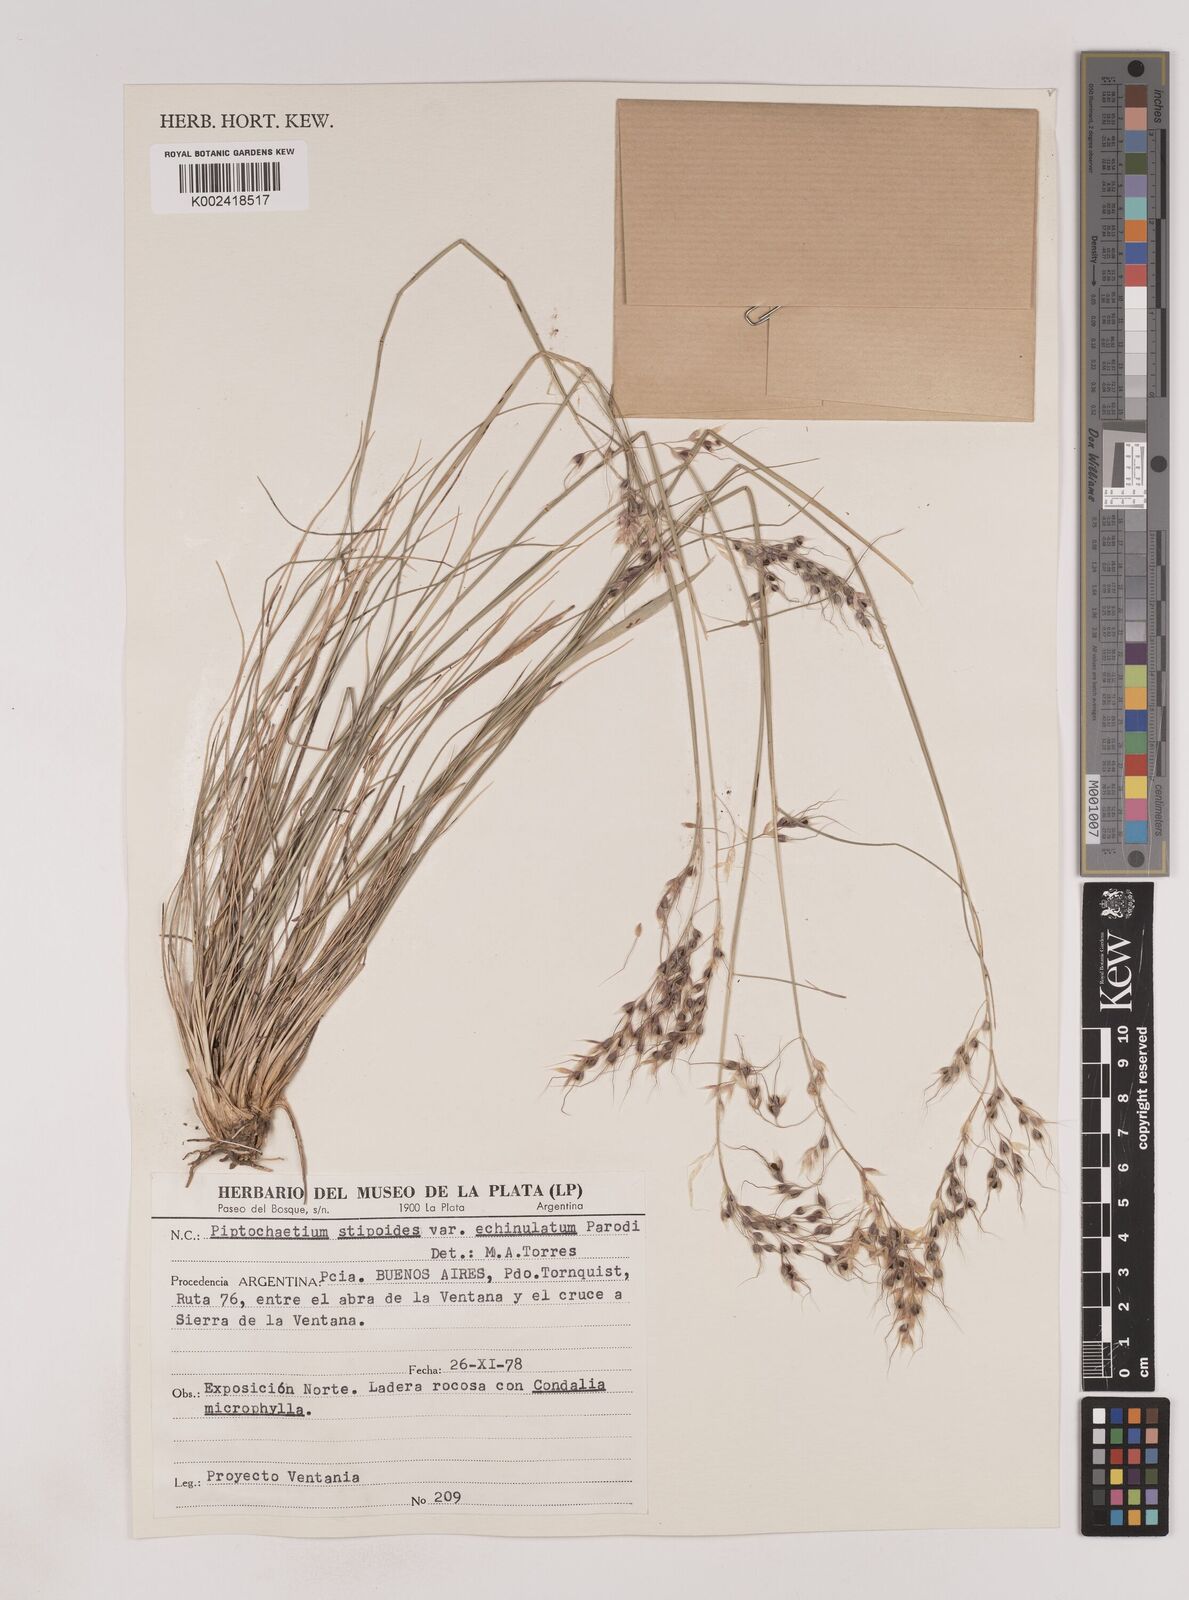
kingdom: Plantae
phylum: Tracheophyta
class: Liliopsida
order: Poales
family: Poaceae
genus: Piptochaetium
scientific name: Piptochaetium stipoides
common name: Purple speargrass
